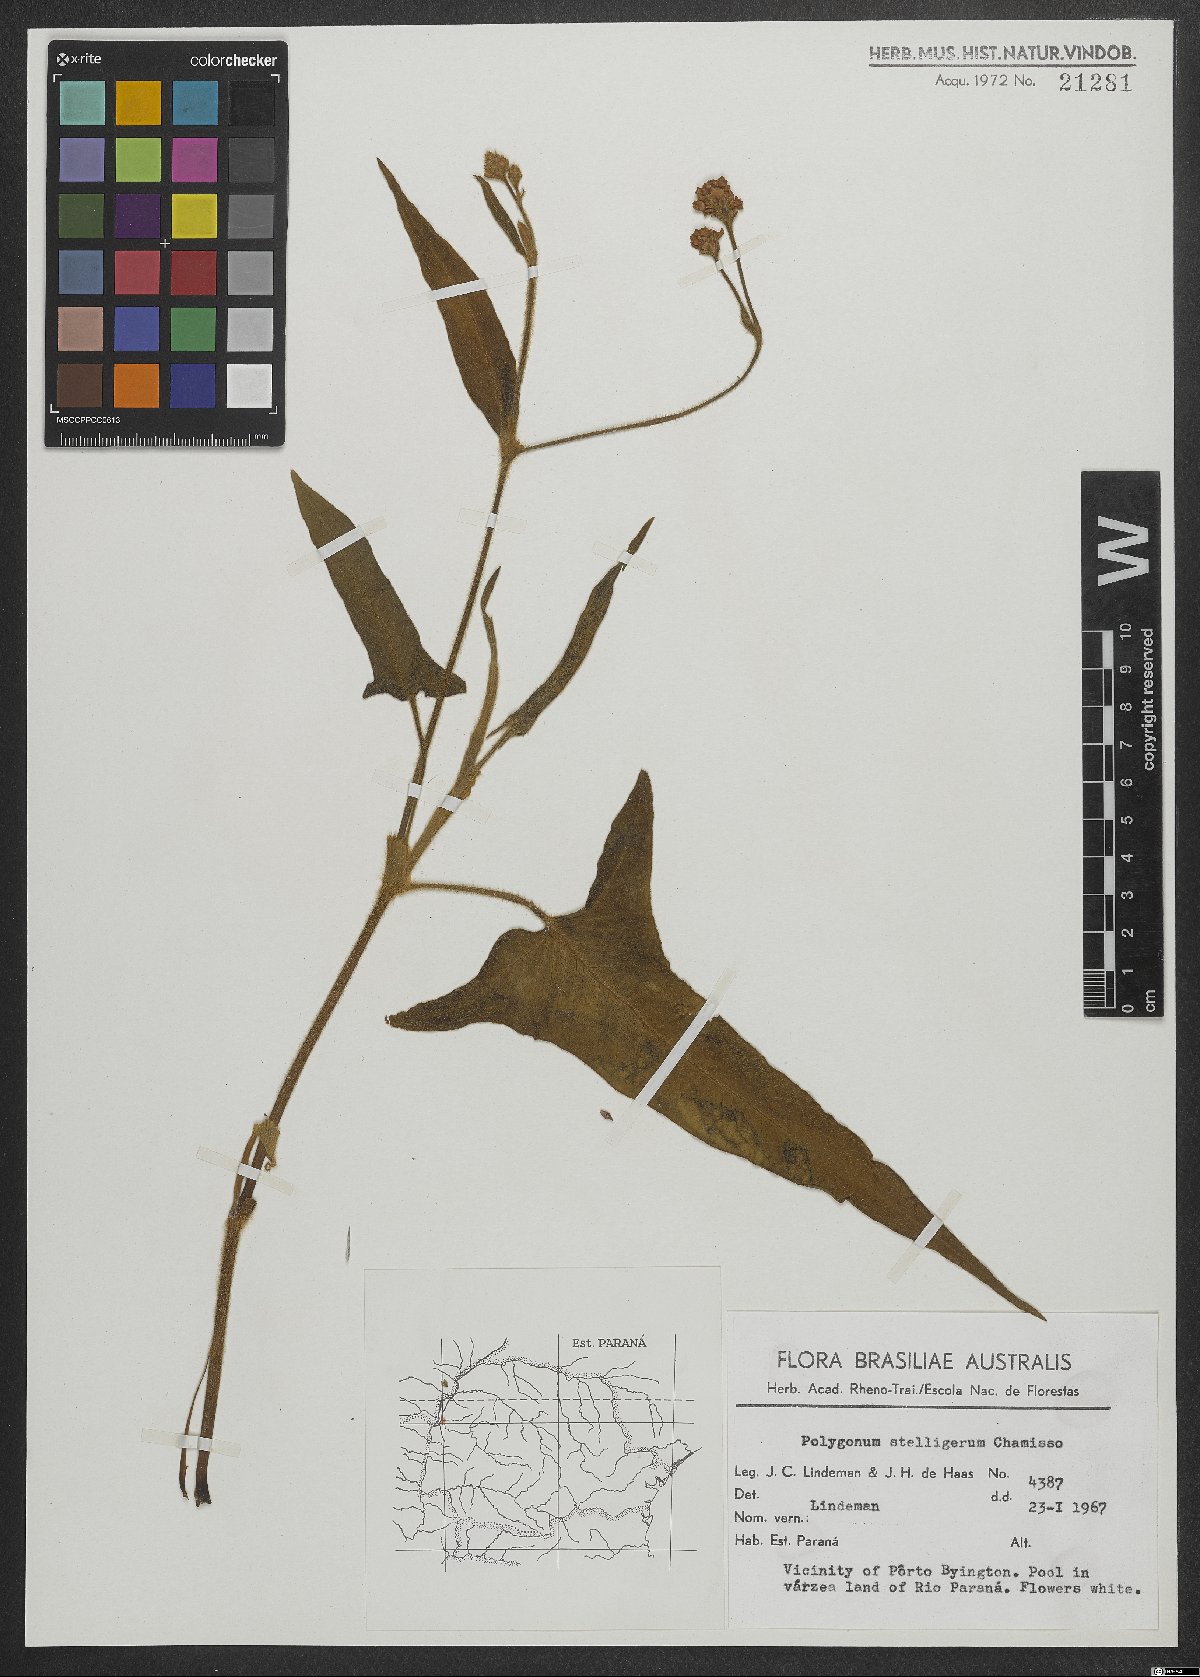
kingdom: Plantae
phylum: Tracheophyta
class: Magnoliopsida
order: Caryophyllales
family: Polygonaceae
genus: Persicaria
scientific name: Persicaria stelligera
